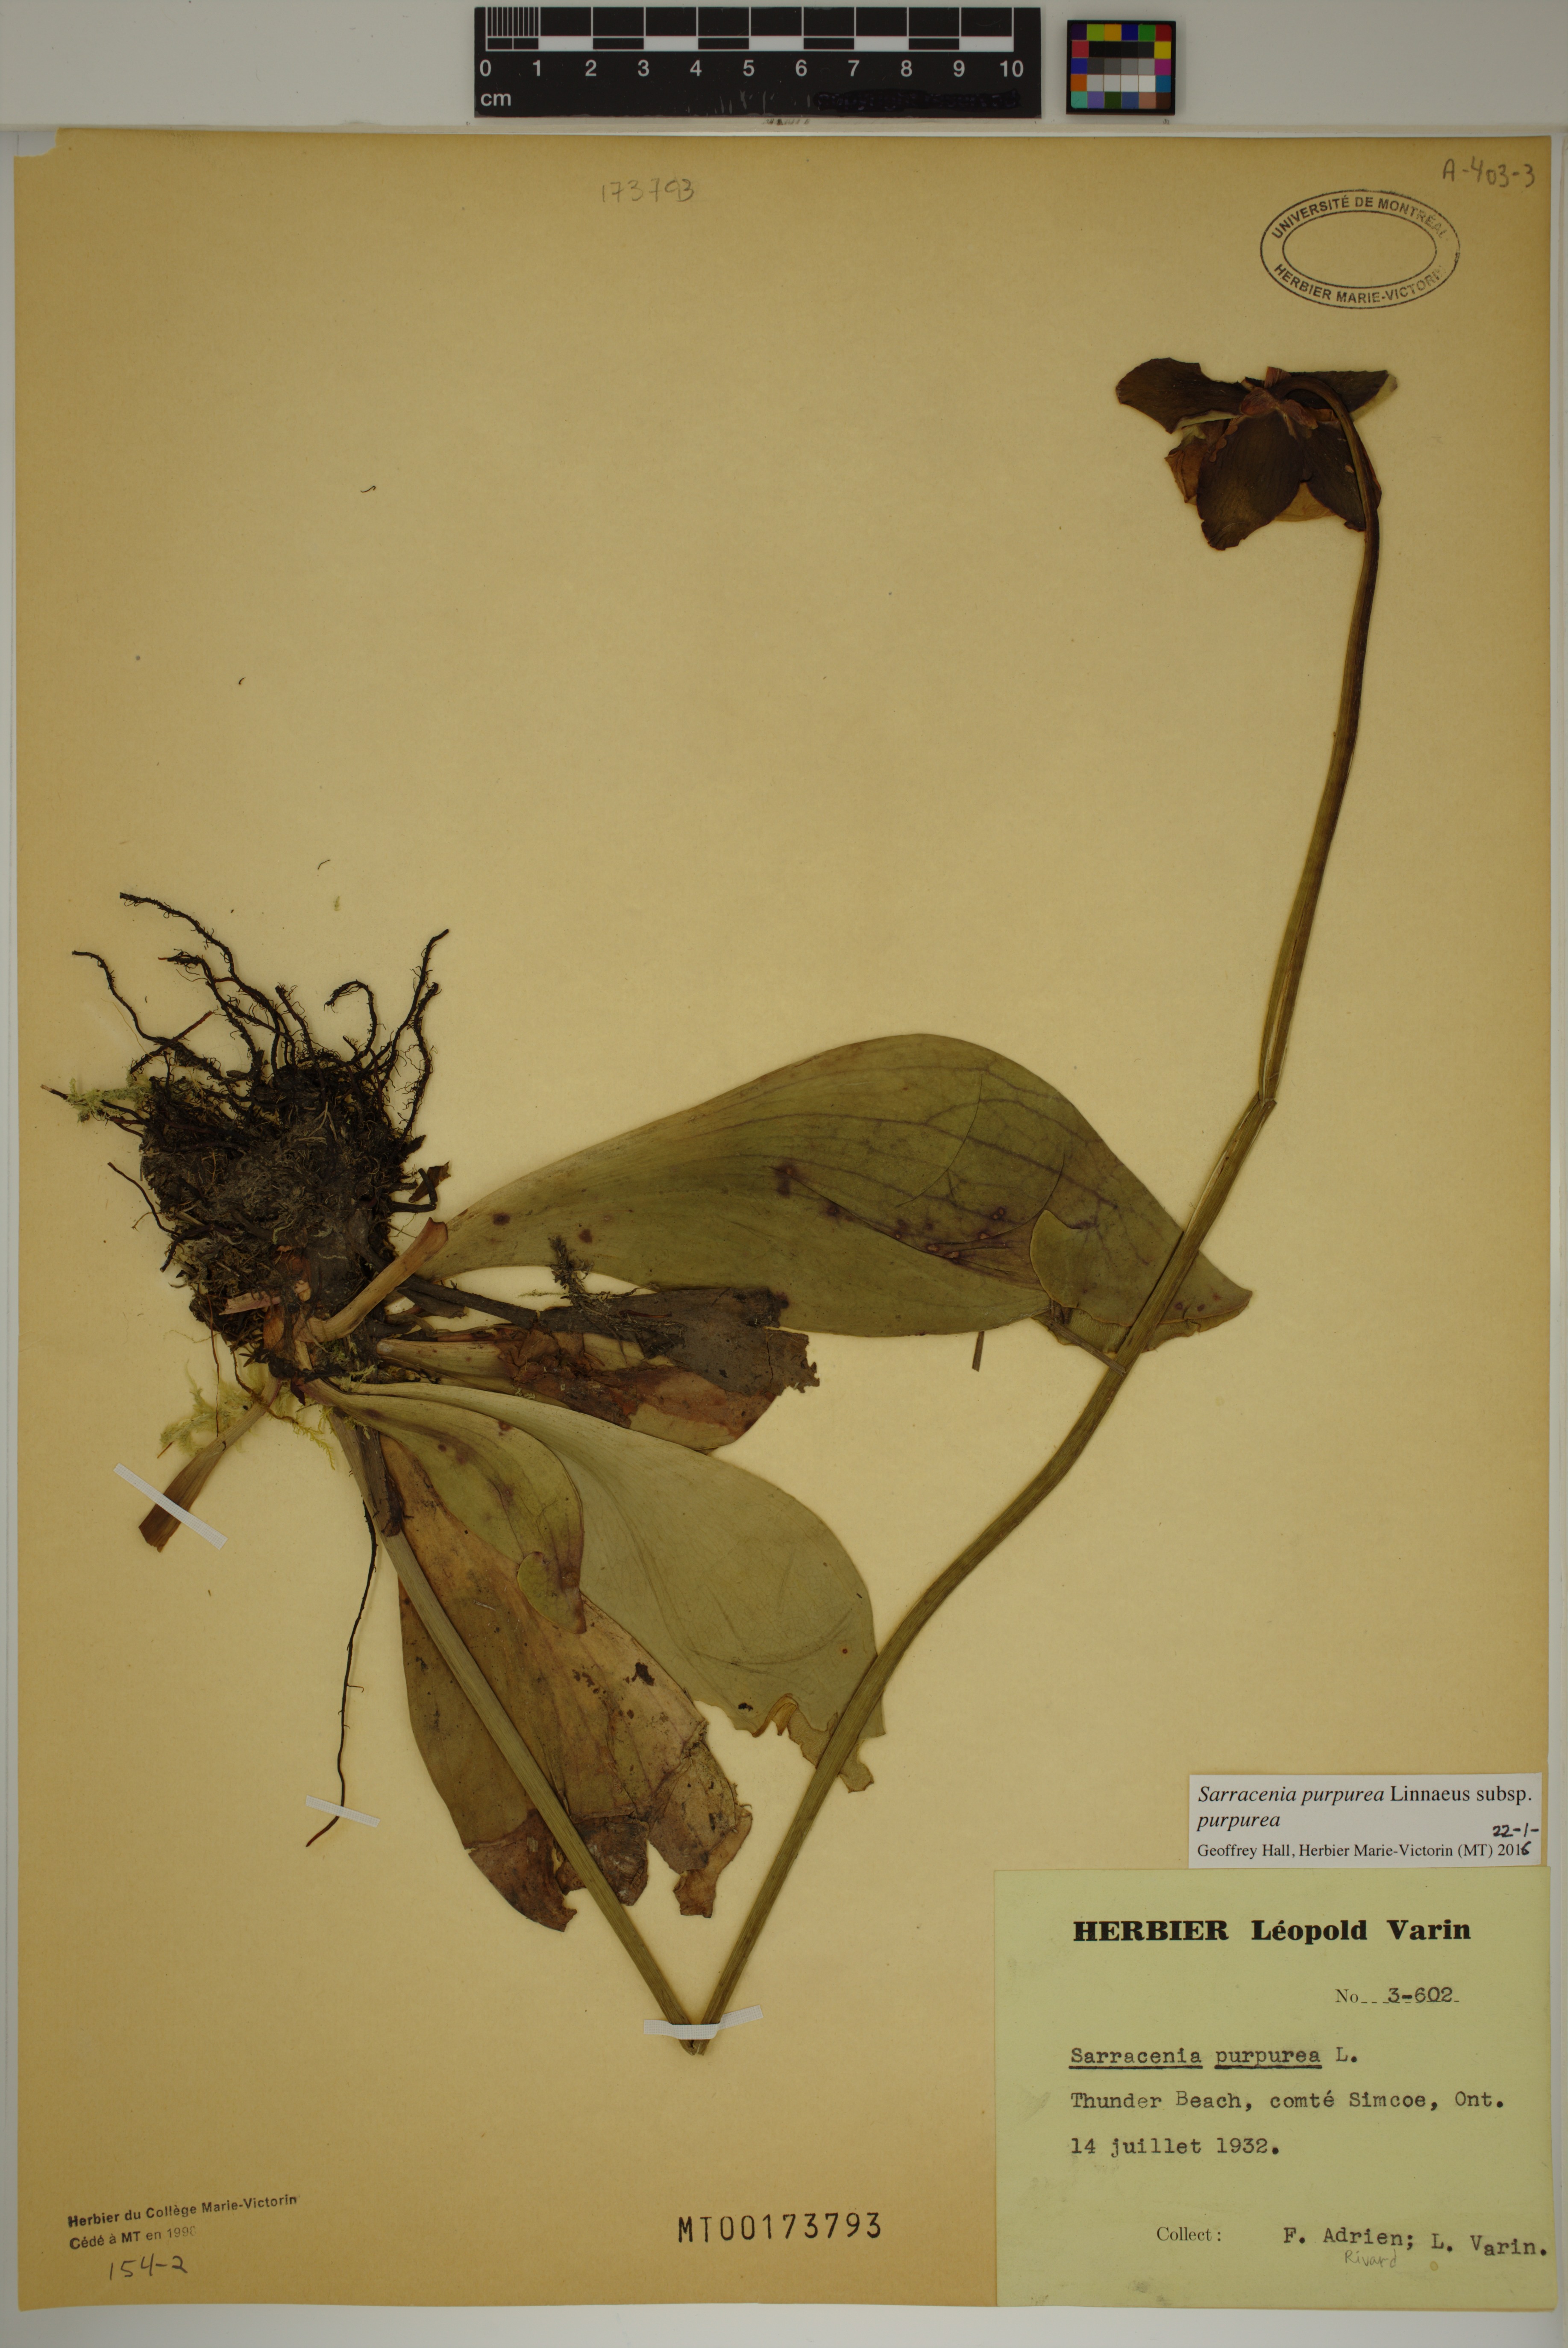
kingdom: Plantae
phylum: Tracheophyta
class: Magnoliopsida
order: Ericales
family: Sarraceniaceae
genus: Sarracenia
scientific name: Sarracenia purpurea
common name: Pitcherplant
